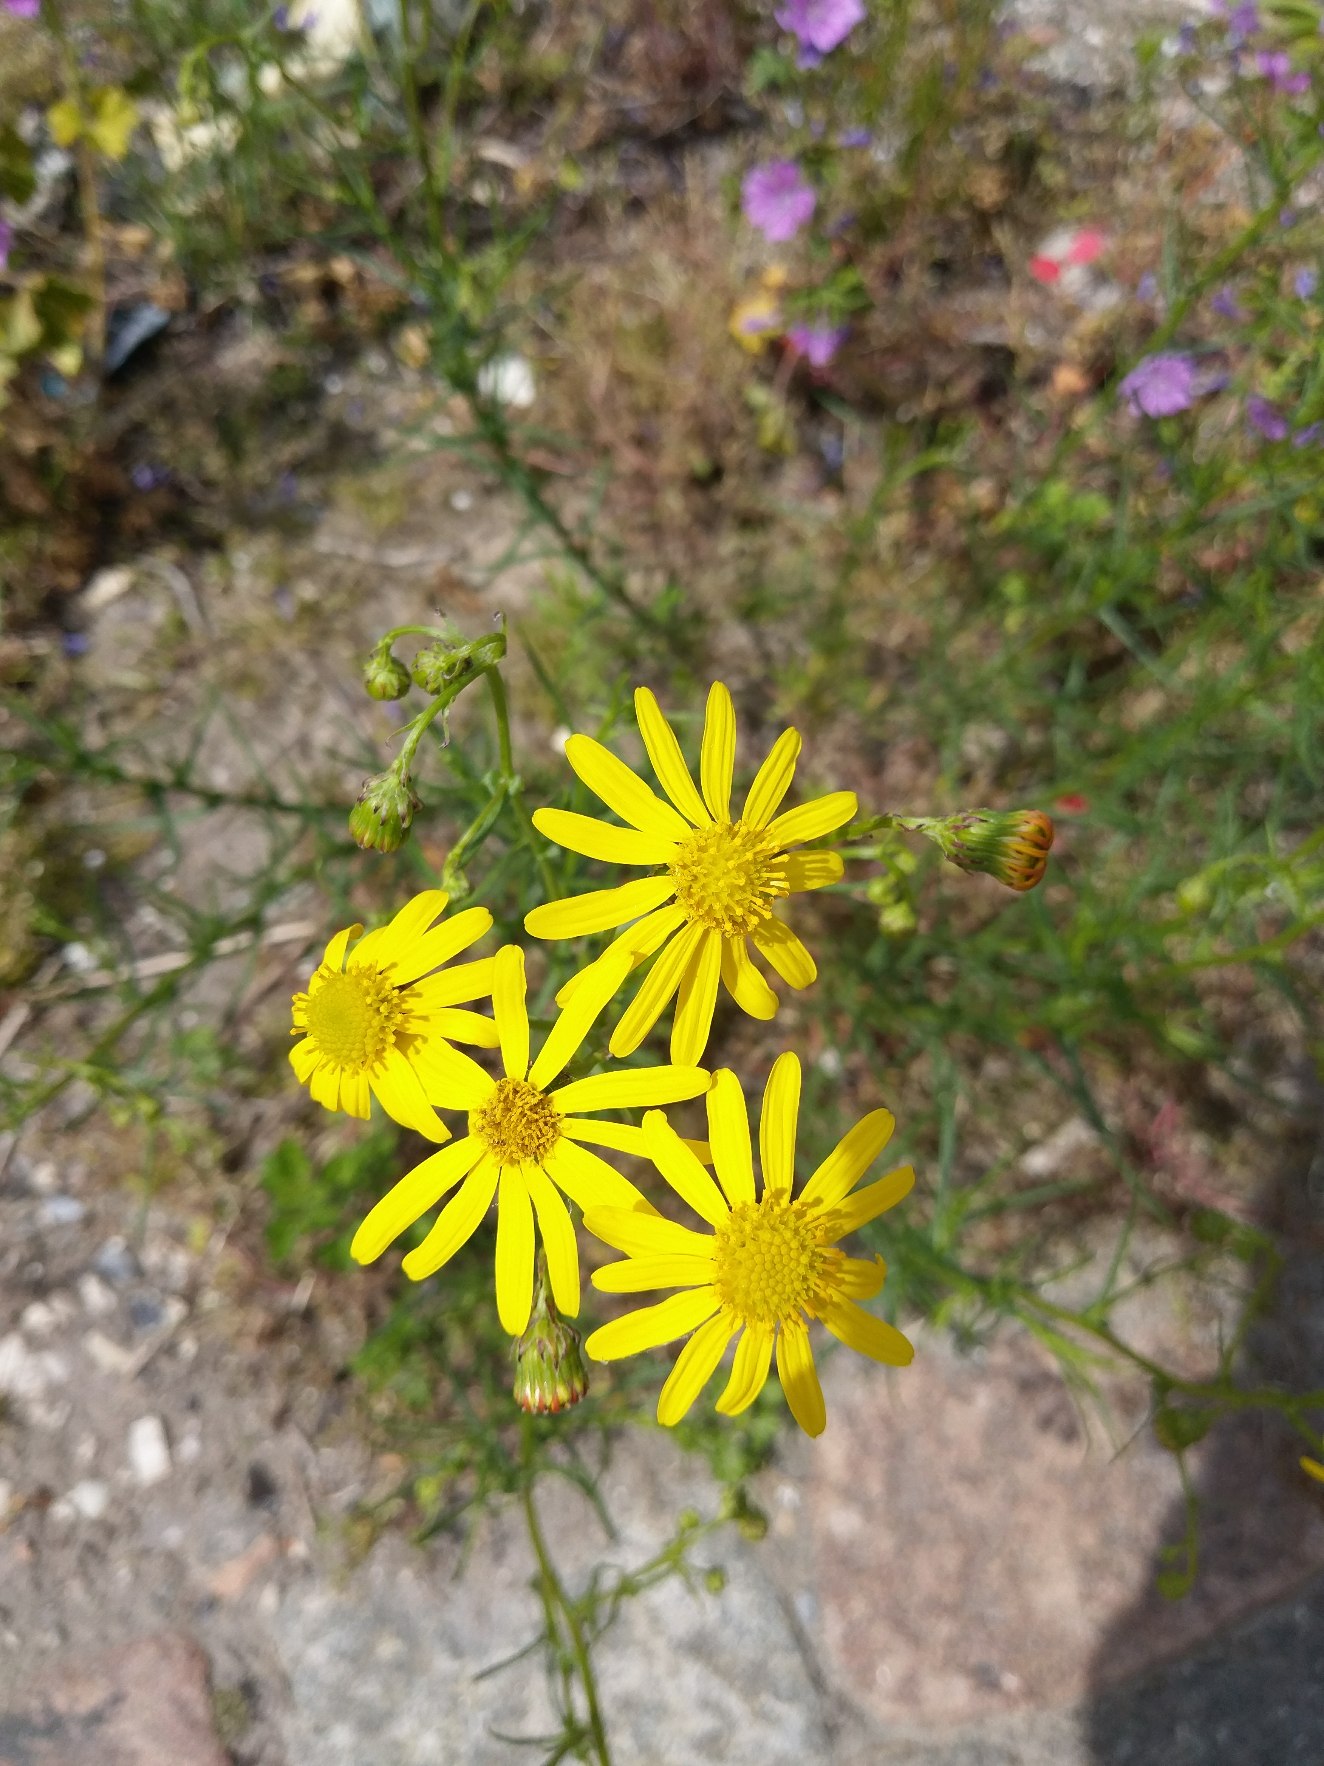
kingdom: Plantae
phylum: Tracheophyta
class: Magnoliopsida
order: Asterales
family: Asteraceae
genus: Senecio
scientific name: Senecio inaequidens
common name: Smalbladet brandbæger
